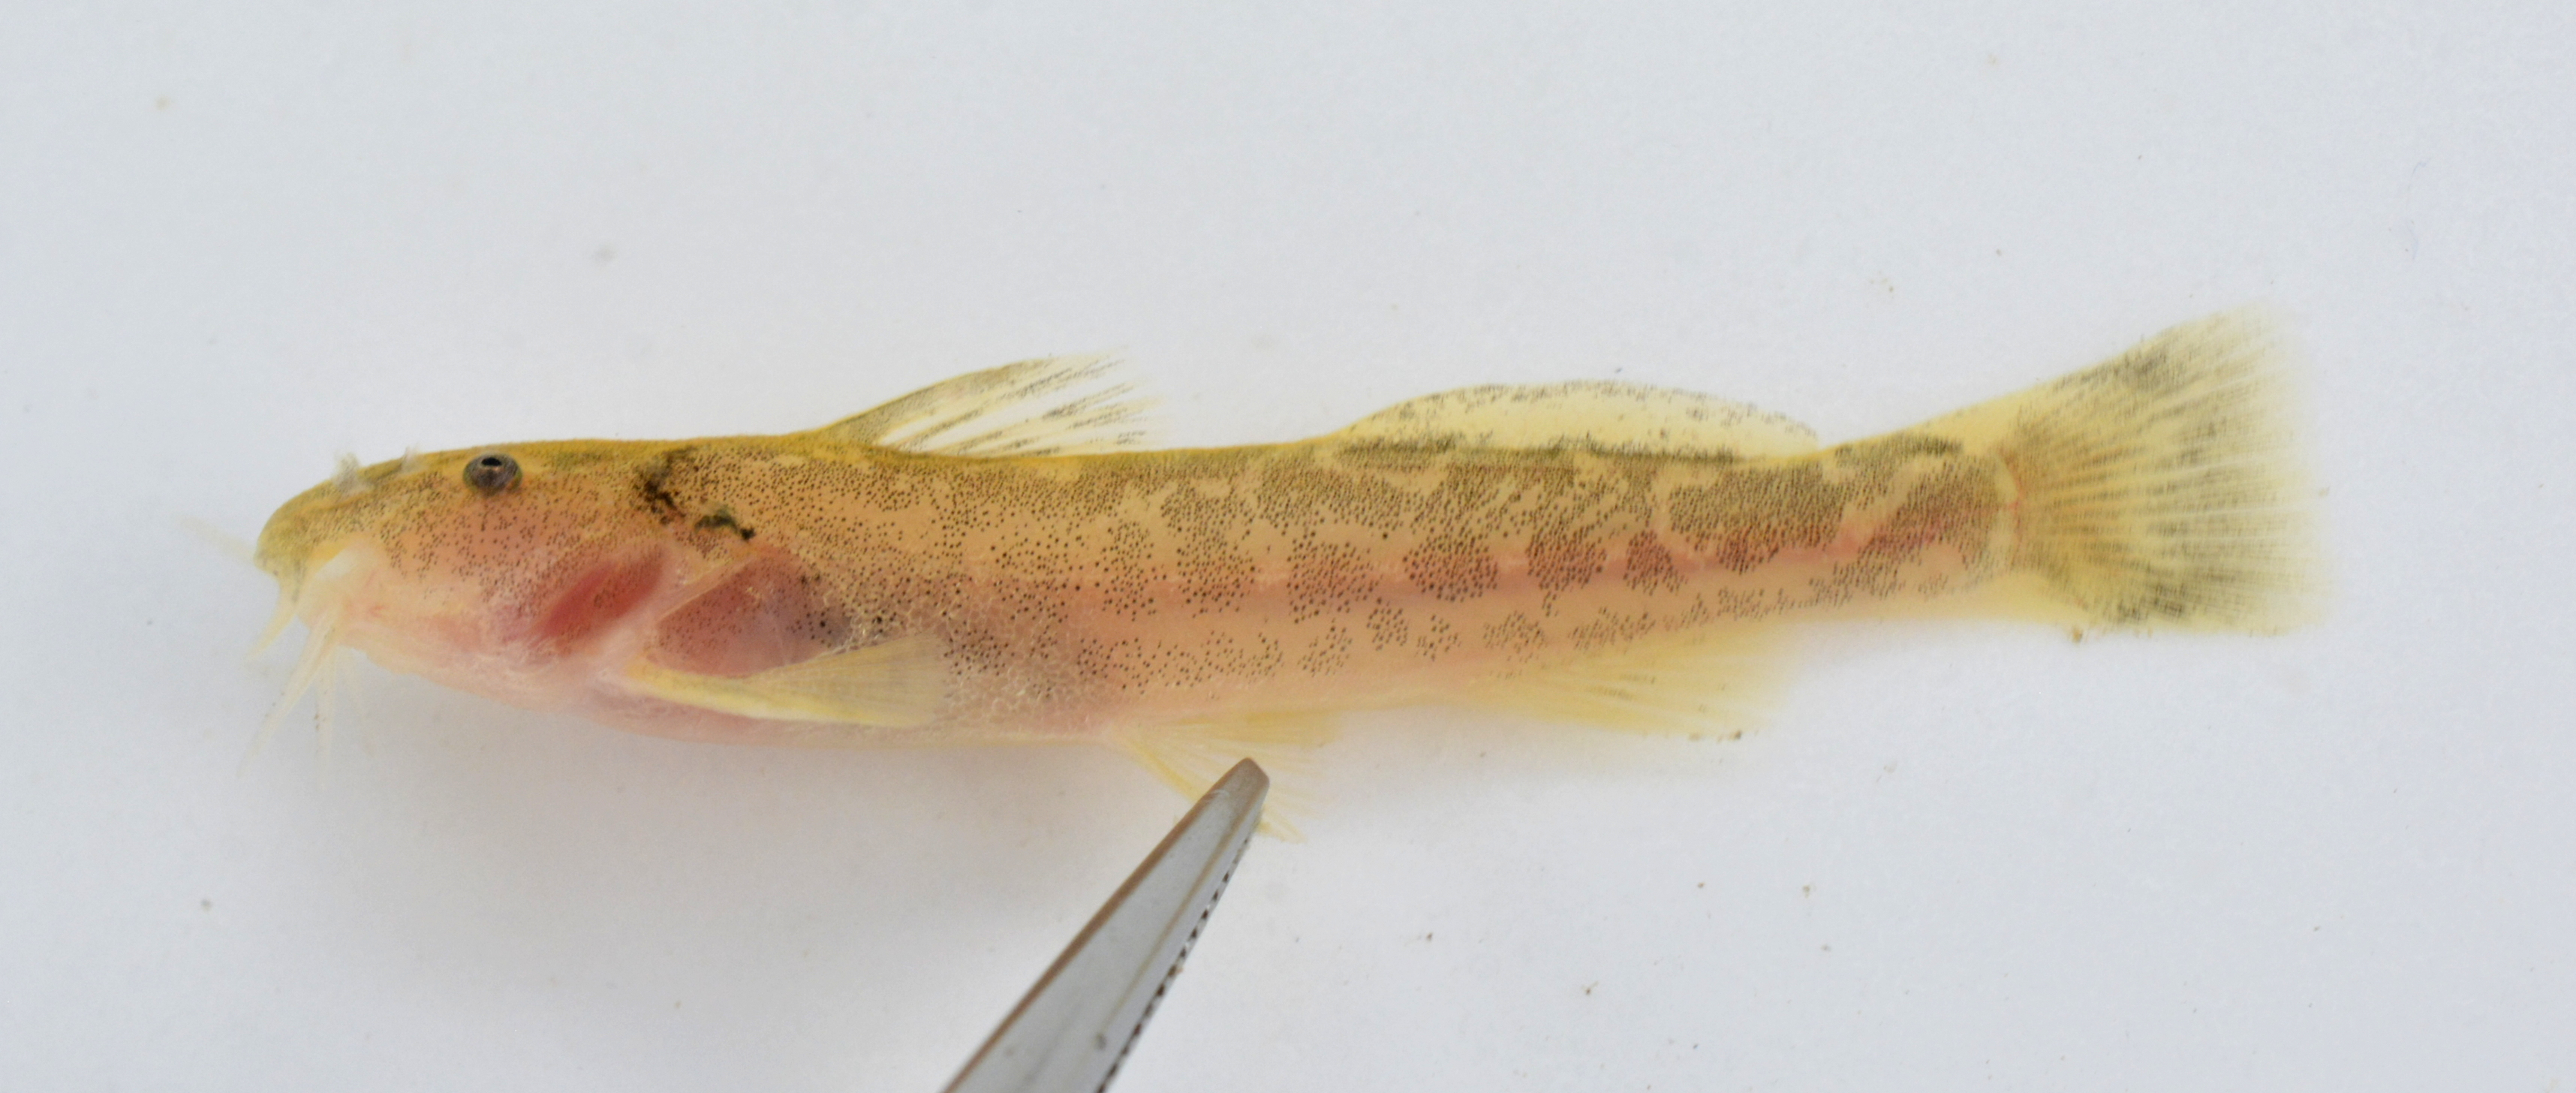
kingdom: Animalia
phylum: Chordata
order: Siluriformes
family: Amphiliidae
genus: Zaireichthys
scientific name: Zaireichthys conspicuus
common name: Blotched sand catlet
